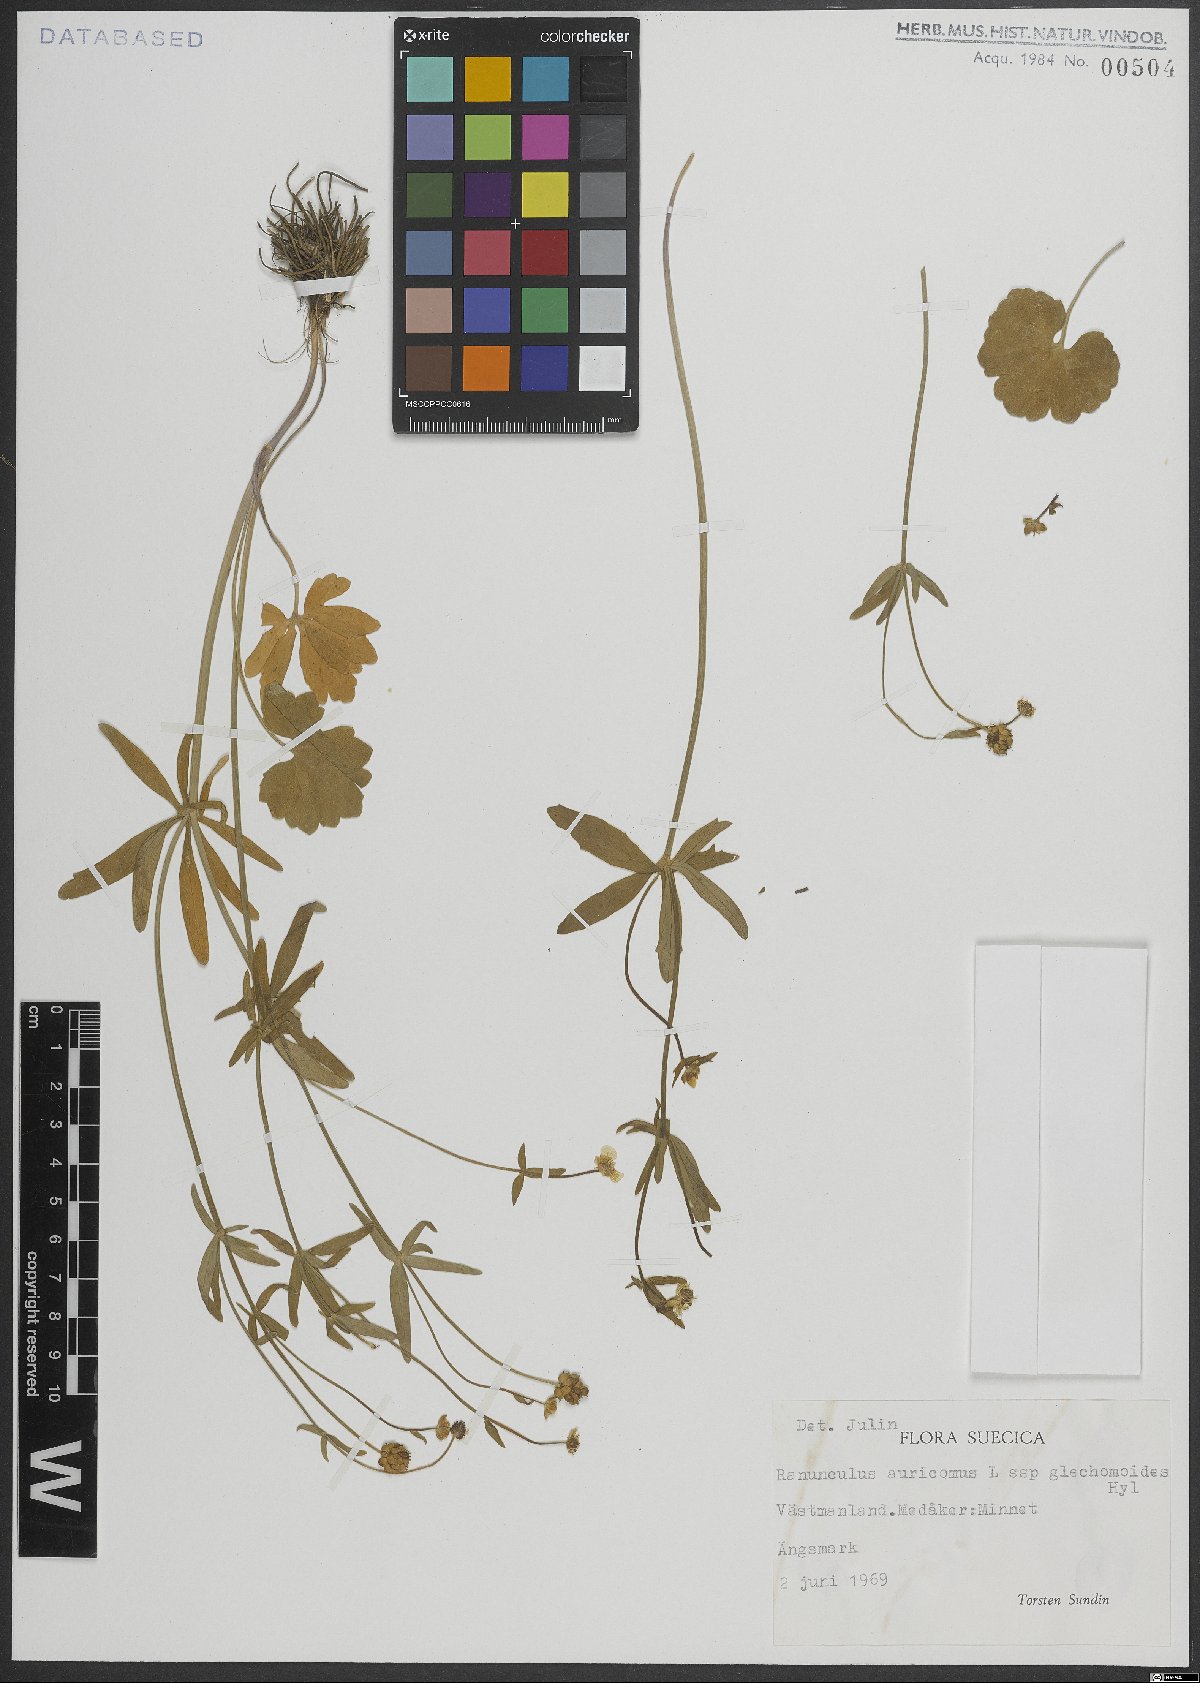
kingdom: Plantae
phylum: Tracheophyta
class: Magnoliopsida
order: Ranunculales
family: Ranunculaceae
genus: Ranunculus
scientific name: Ranunculus auricomus
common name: Goldilocks buttercup
